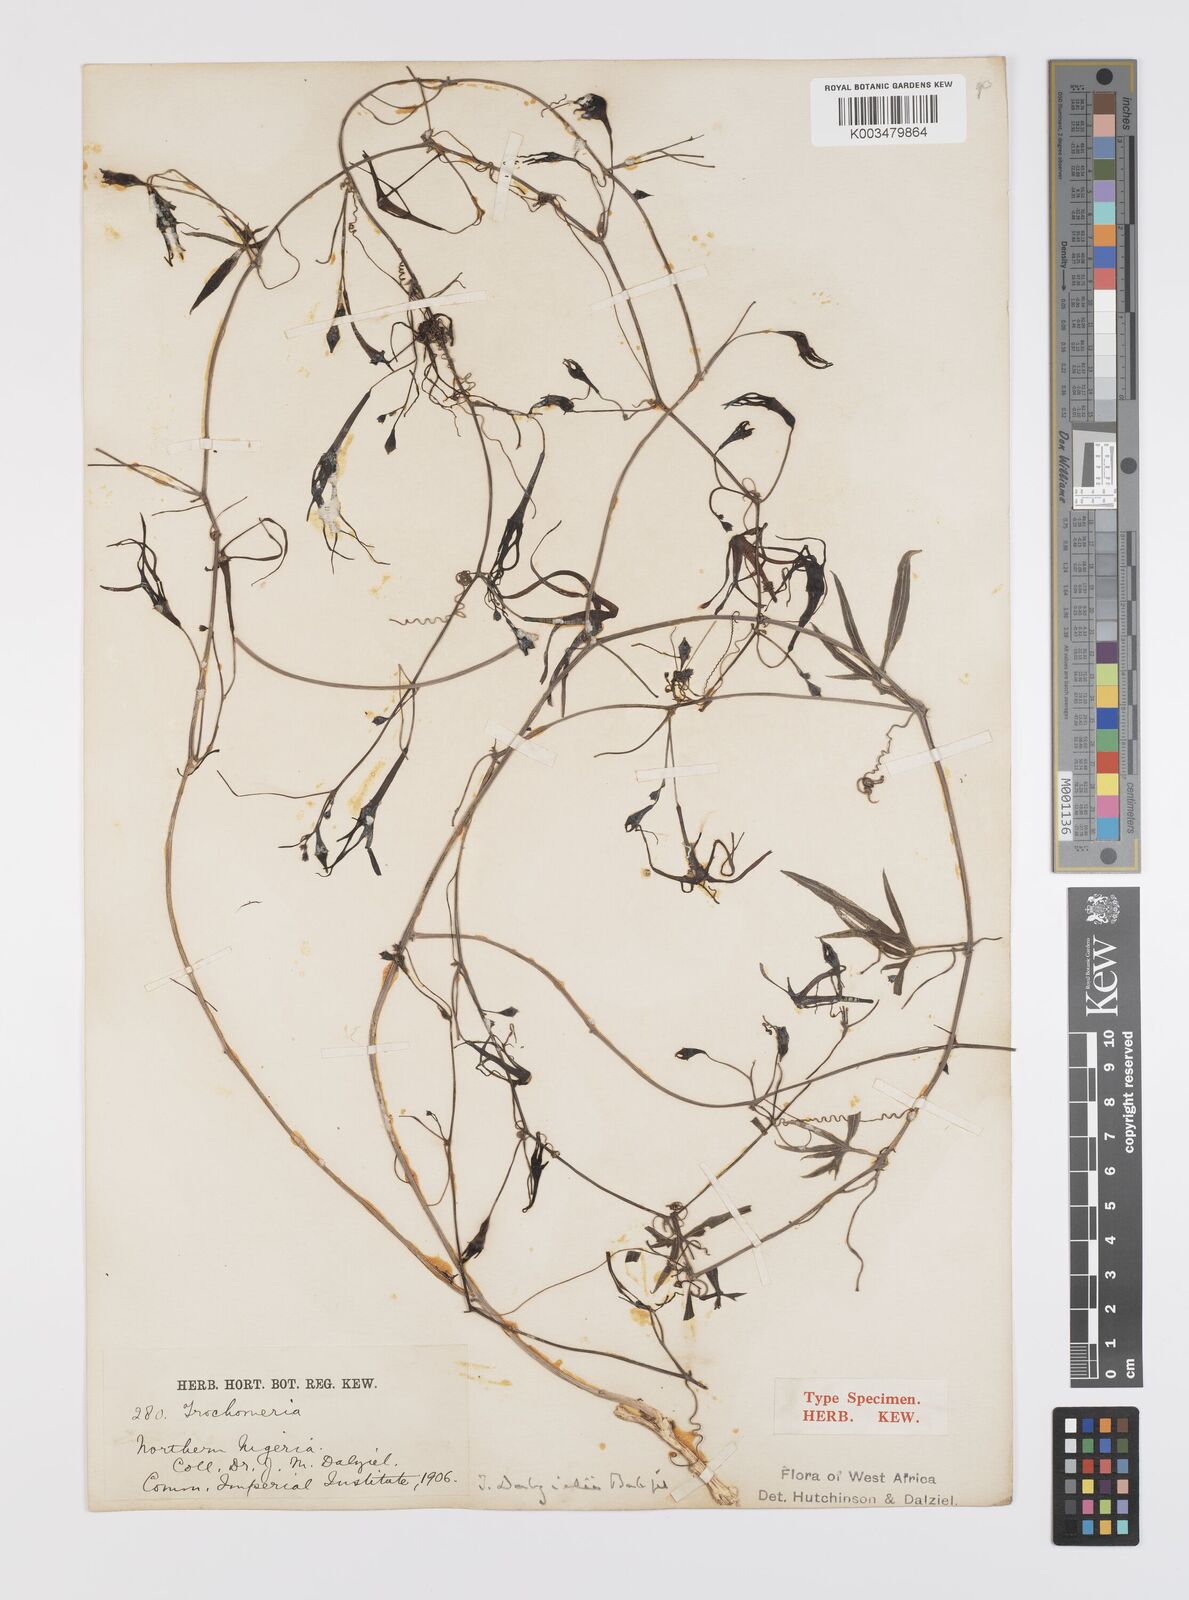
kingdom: Plantae
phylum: Tracheophyta
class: Magnoliopsida
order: Cucurbitales
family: Cucurbitaceae
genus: Trochomeria
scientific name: Trochomeria macrocarpa
